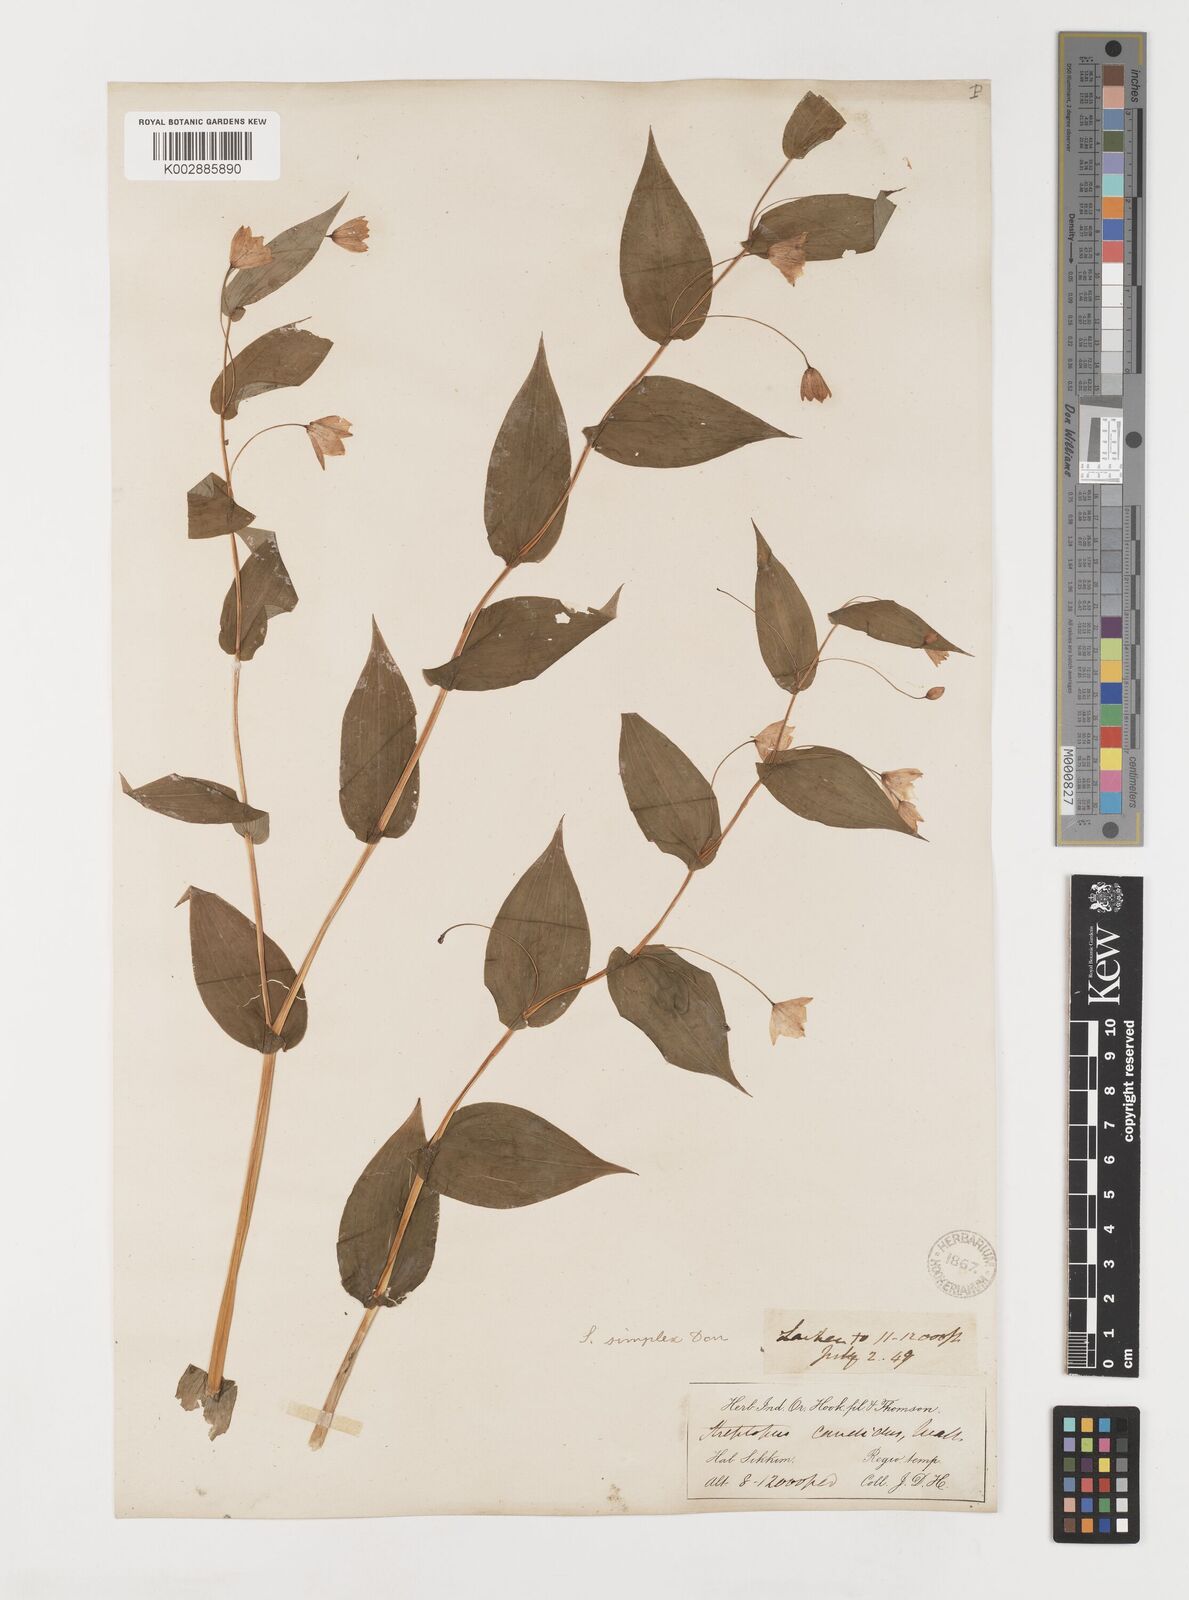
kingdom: Plantae
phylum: Tracheophyta
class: Liliopsida
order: Liliales
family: Liliaceae
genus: Streptopus
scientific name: Streptopus simplex
